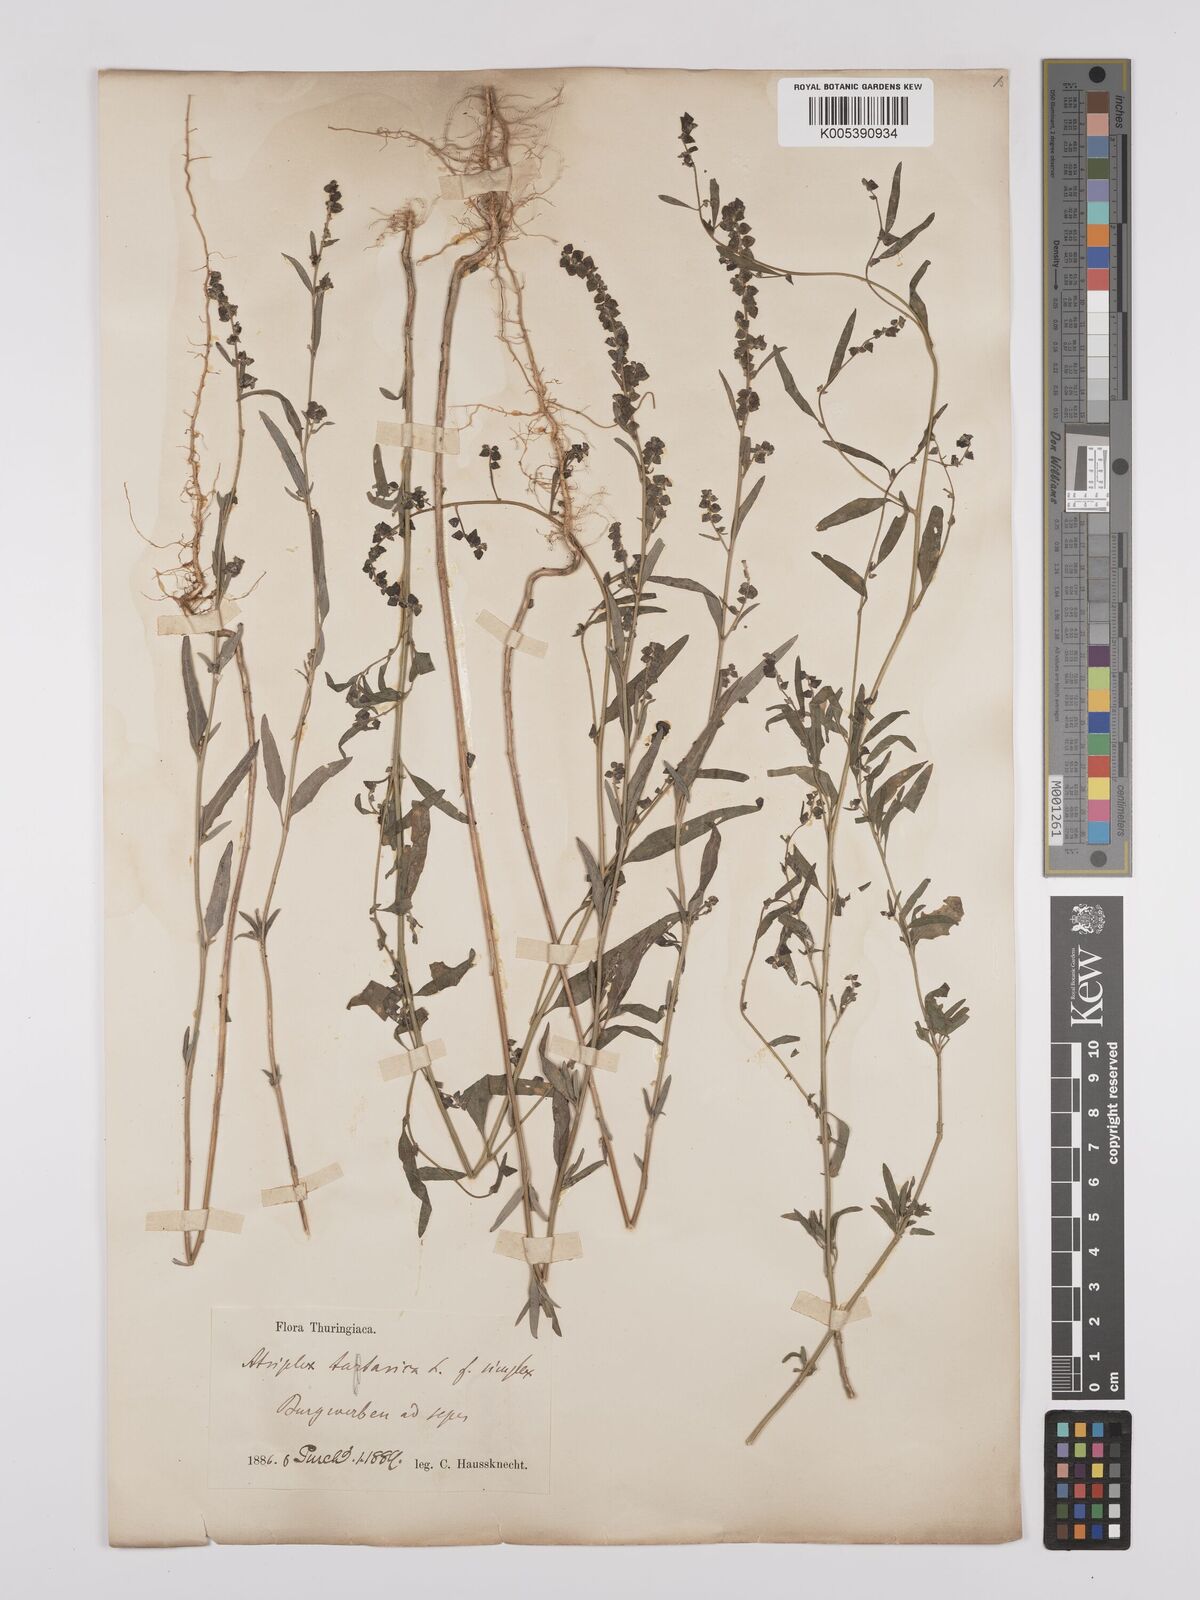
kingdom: Plantae
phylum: Tracheophyta
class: Magnoliopsida
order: Caryophyllales
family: Amaranthaceae
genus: Atriplex
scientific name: Atriplex
